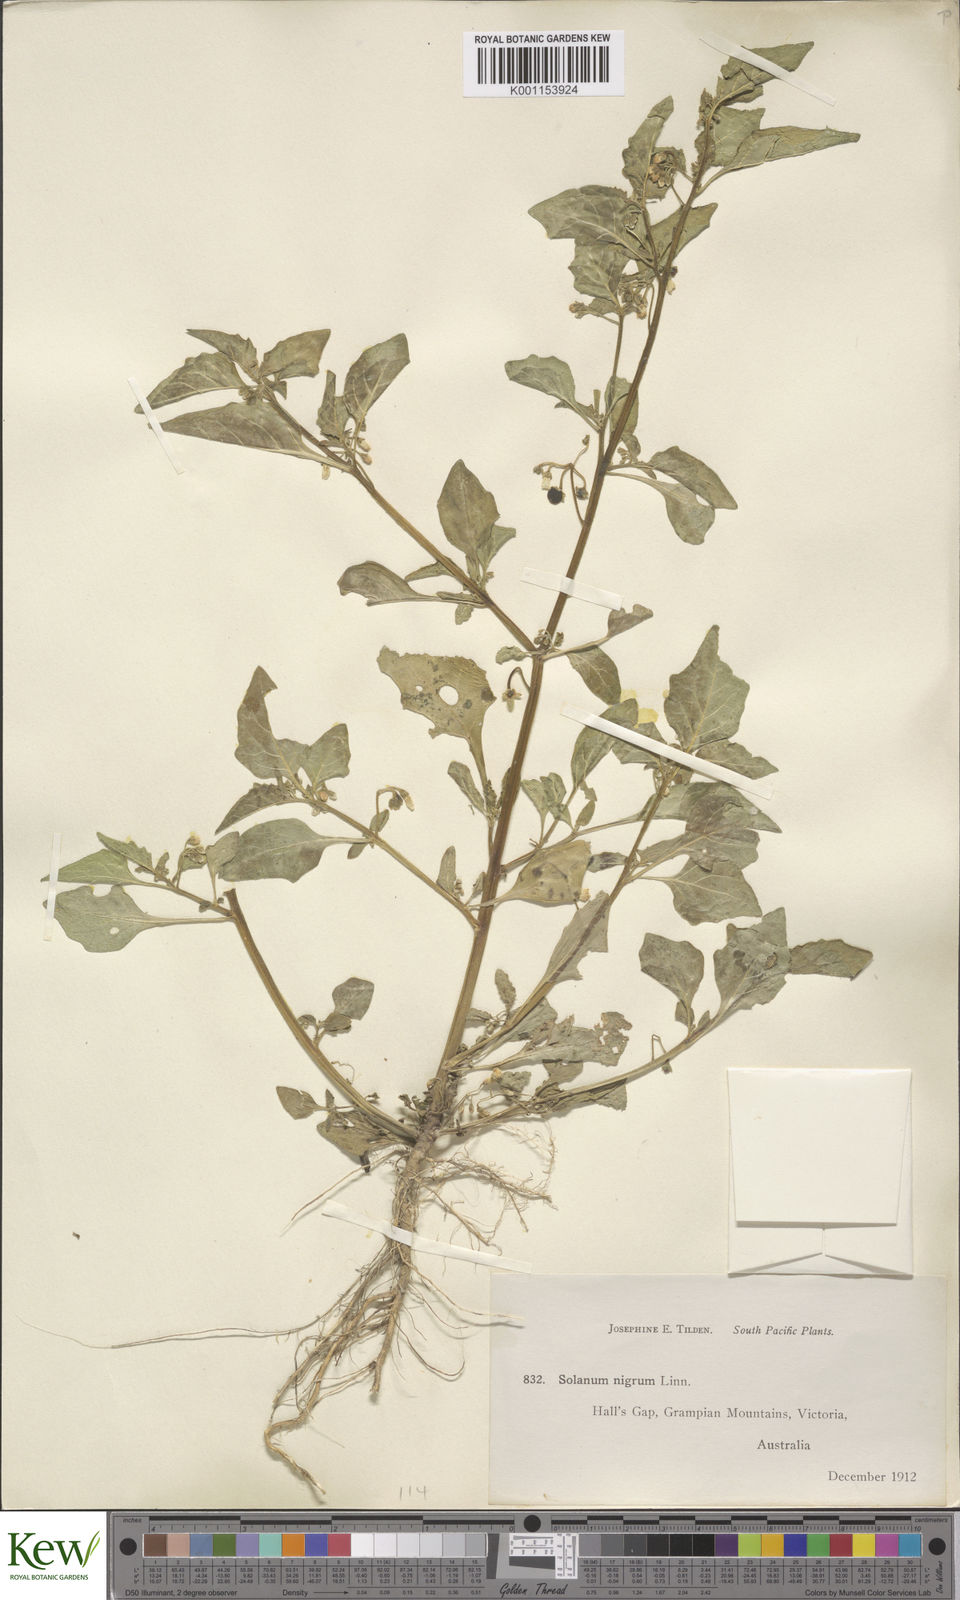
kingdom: Plantae
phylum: Tracheophyta
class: Magnoliopsida
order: Solanales
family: Solanaceae
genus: Solanum
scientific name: Solanum nigrum
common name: Black nightshade
